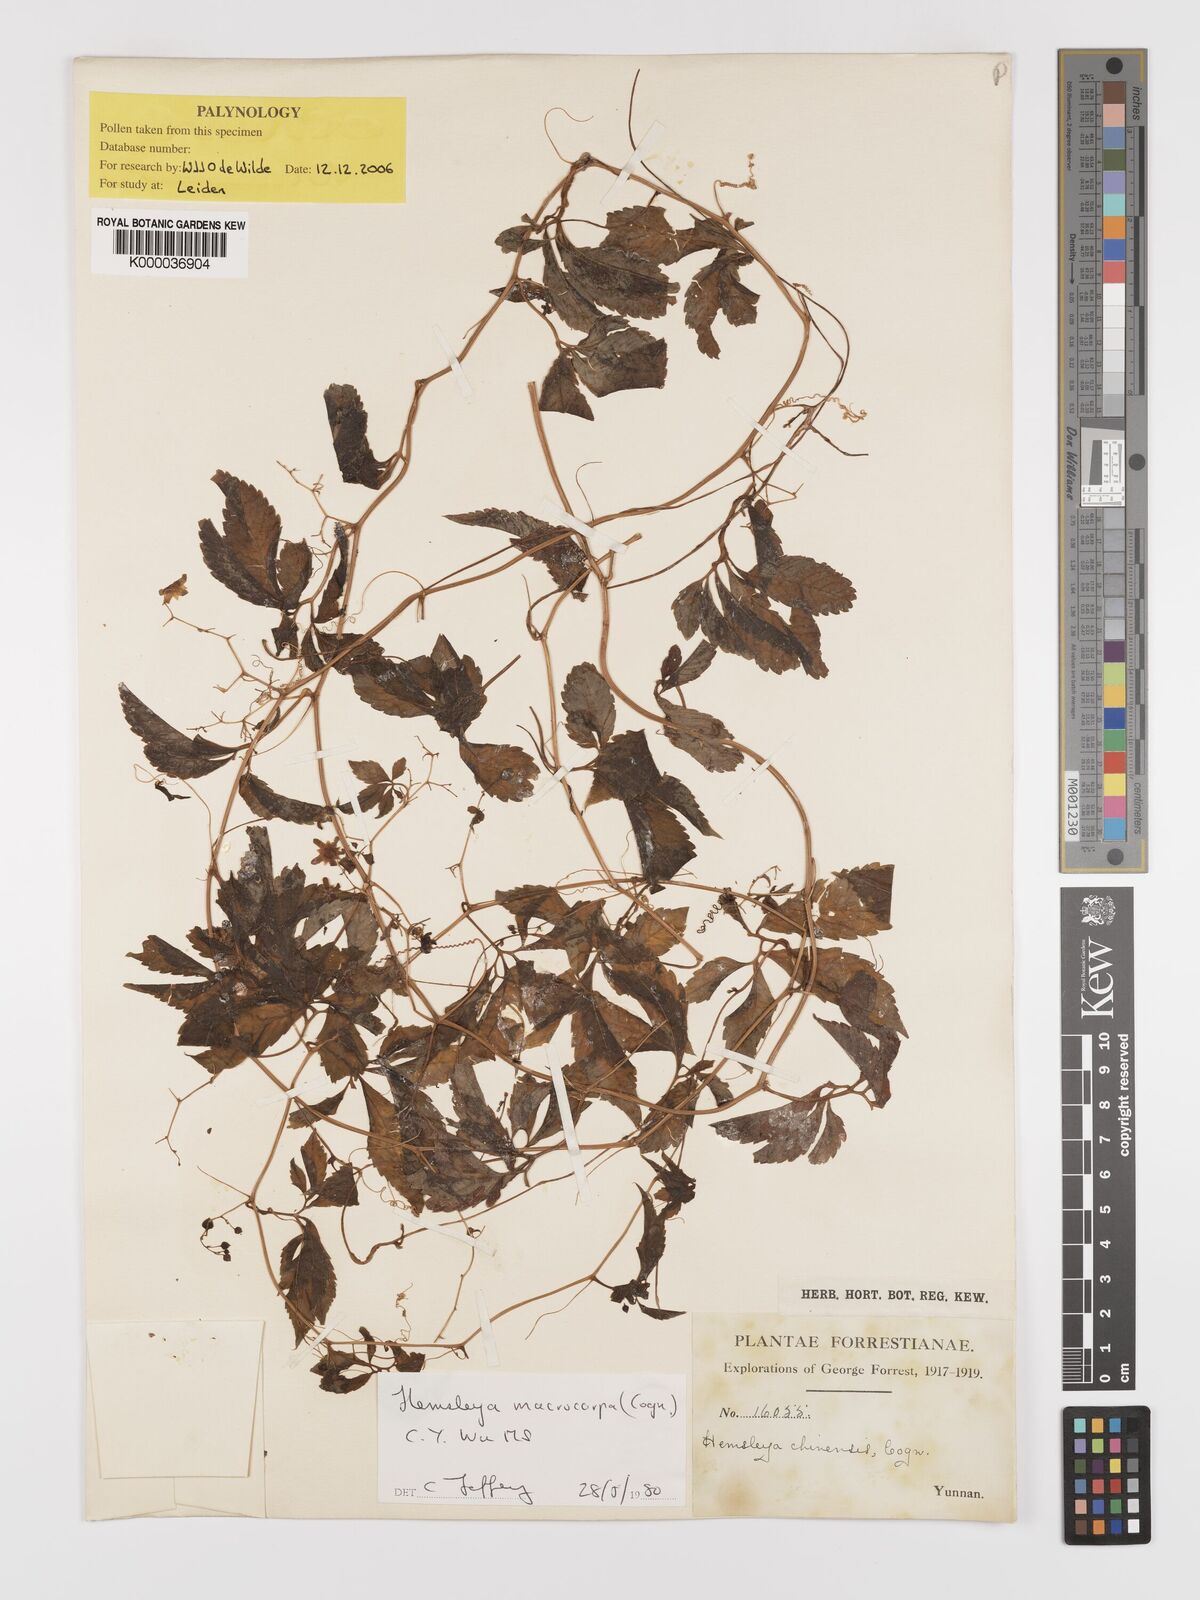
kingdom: Plantae
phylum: Tracheophyta
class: Magnoliopsida
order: Cucurbitales
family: Cucurbitaceae
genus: Hemsleya
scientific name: Hemsleya chengyihana
